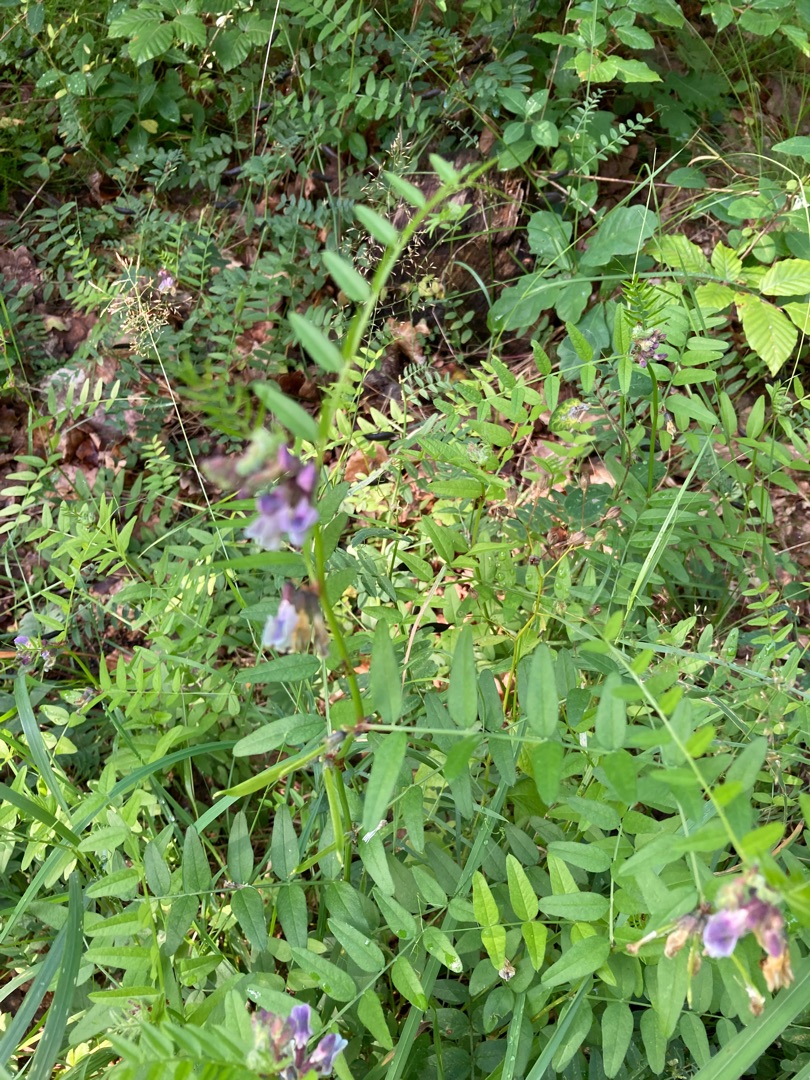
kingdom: Plantae
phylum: Tracheophyta
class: Magnoliopsida
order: Fabales
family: Fabaceae
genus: Vicia
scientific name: Vicia sepium
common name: Gærde-vikke
